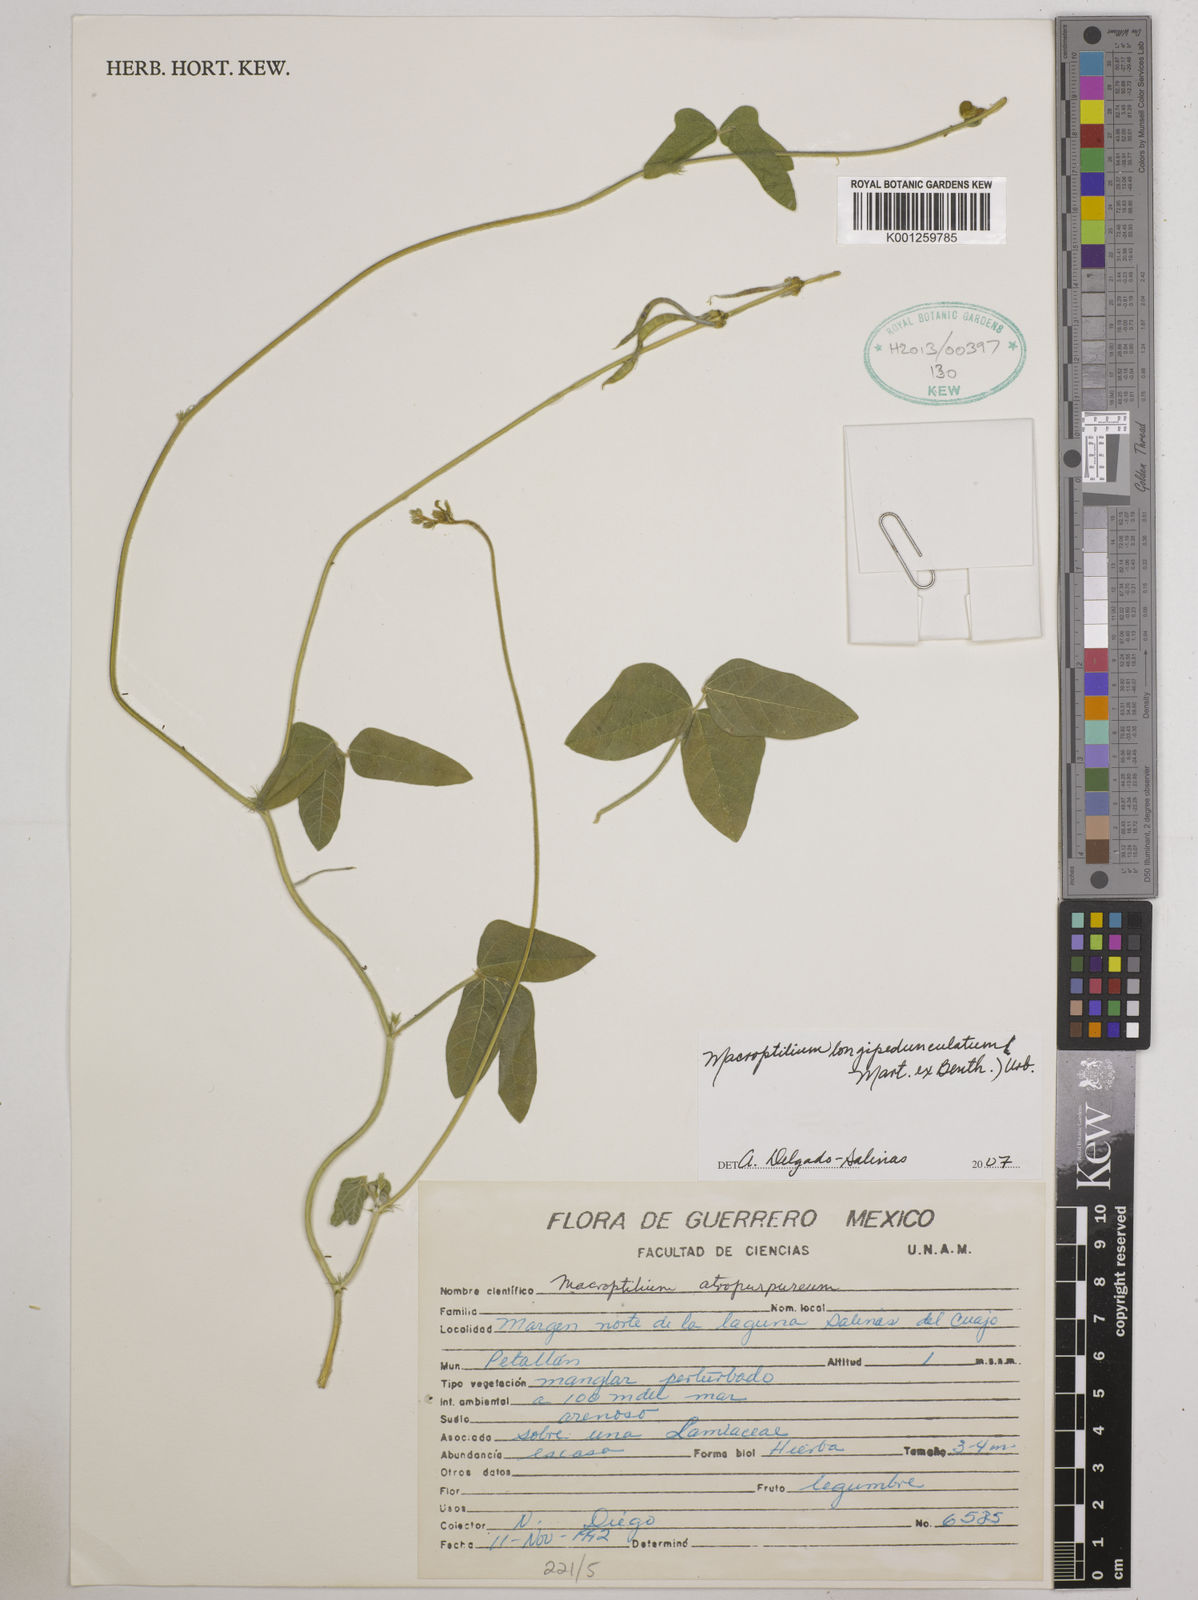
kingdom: Plantae
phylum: Tracheophyta
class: Magnoliopsida
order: Fabales
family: Fabaceae
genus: Macroptilium
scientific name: Macroptilium longepedunculatum
